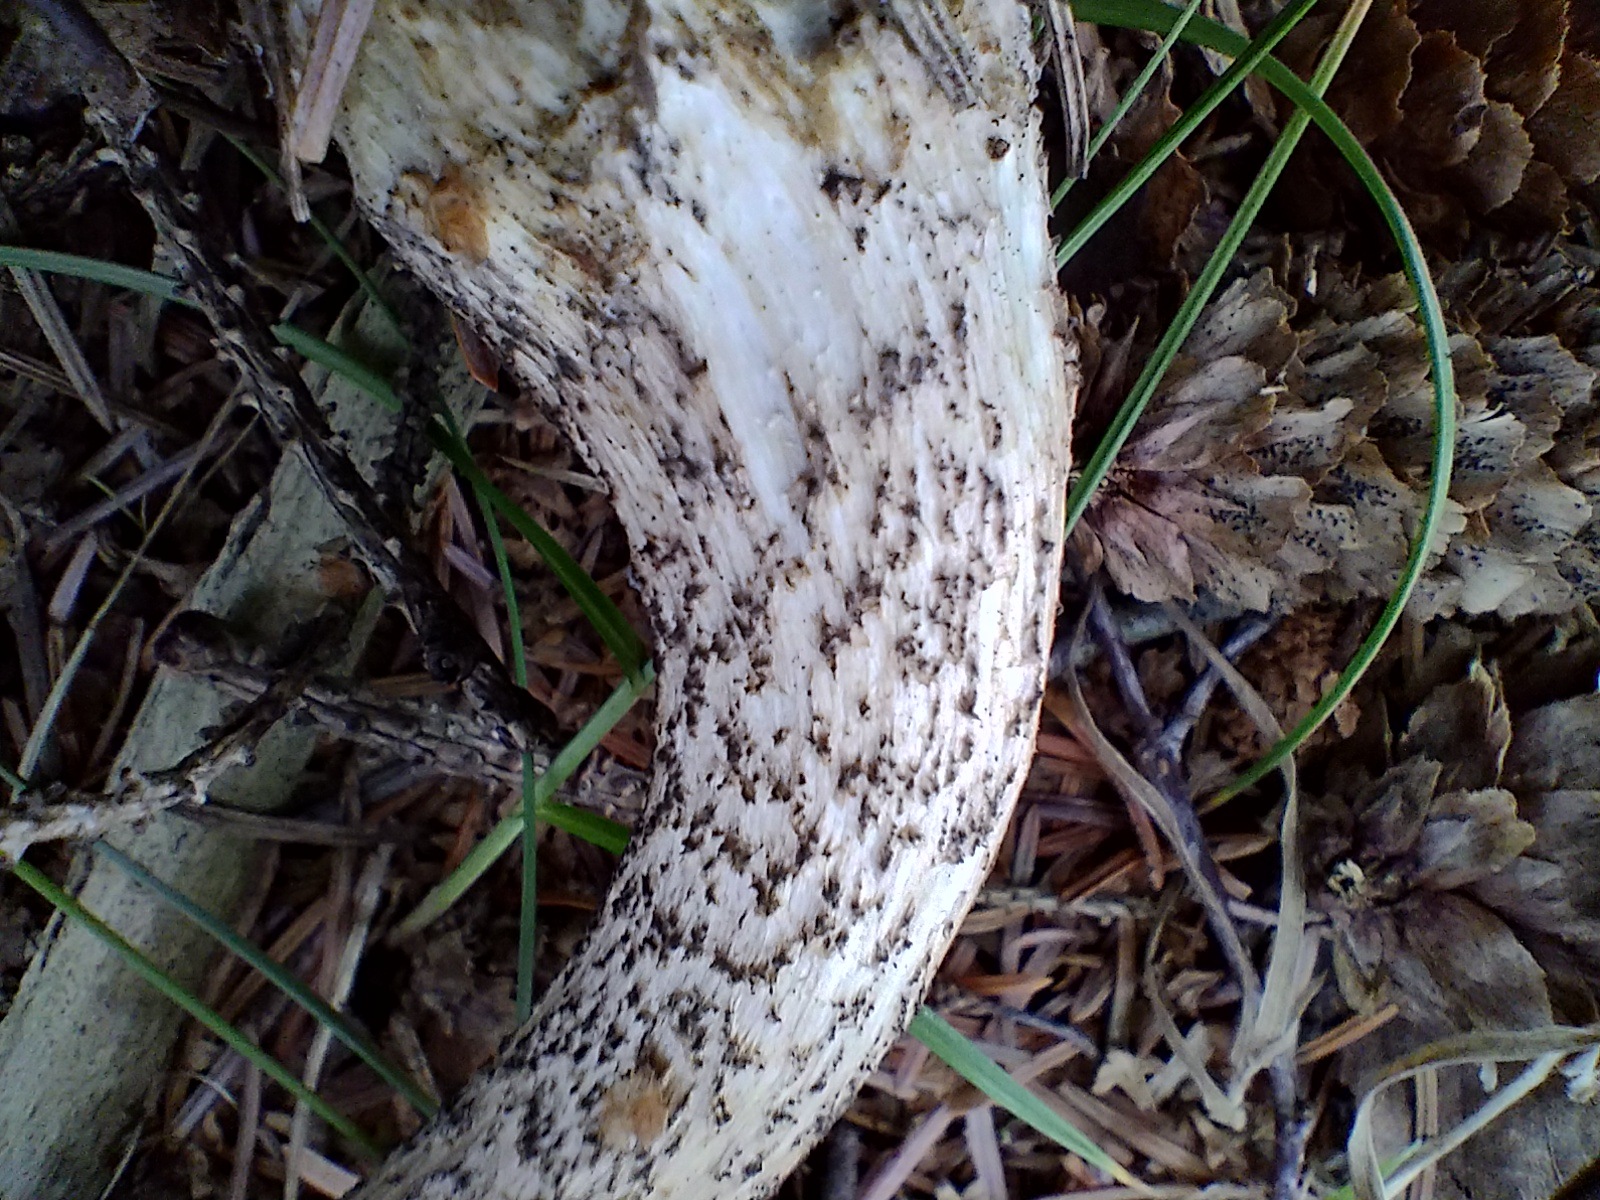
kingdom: Fungi
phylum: Basidiomycota
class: Agaricomycetes
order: Boletales
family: Boletaceae
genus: Leccinum
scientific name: Leccinum scabrum
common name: brun skælrørhat
